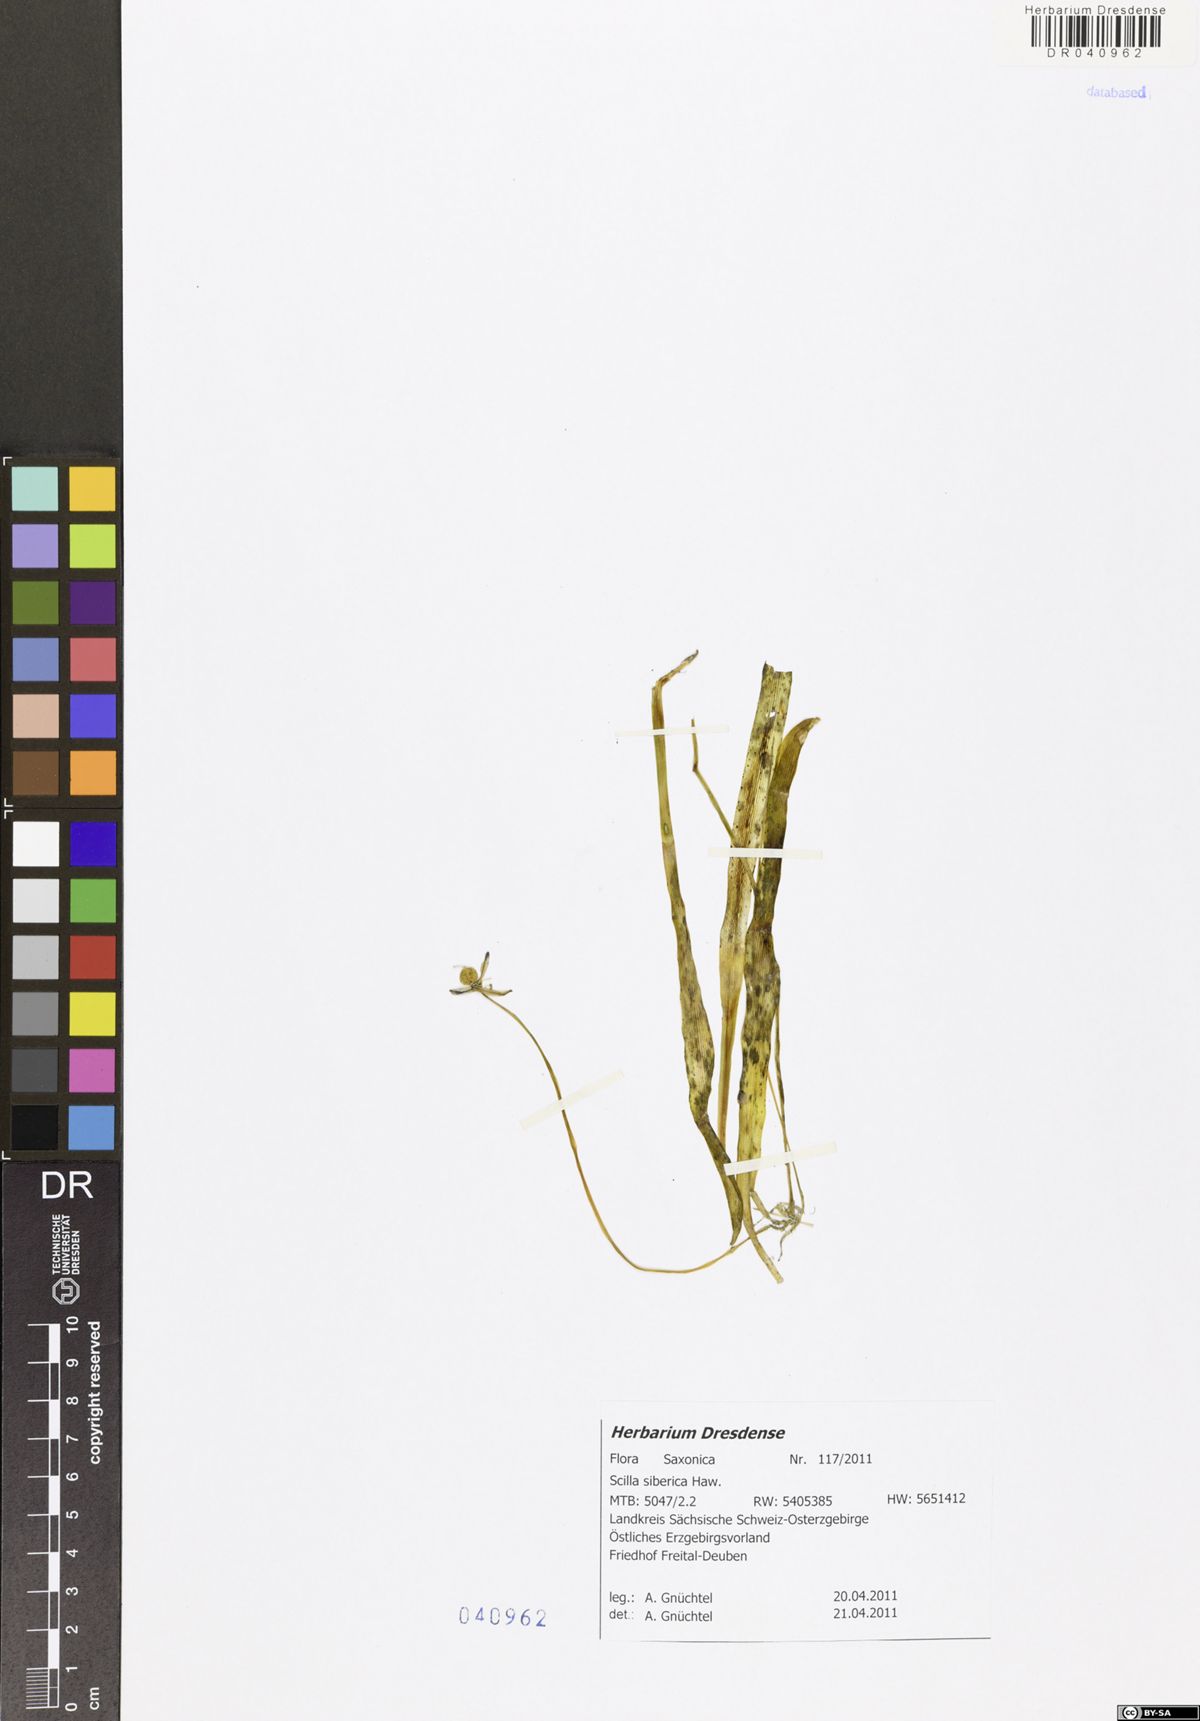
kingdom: Plantae
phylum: Tracheophyta
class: Liliopsida
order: Asparagales
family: Asparagaceae
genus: Scilla
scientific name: Scilla siberica
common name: Siberian squill
